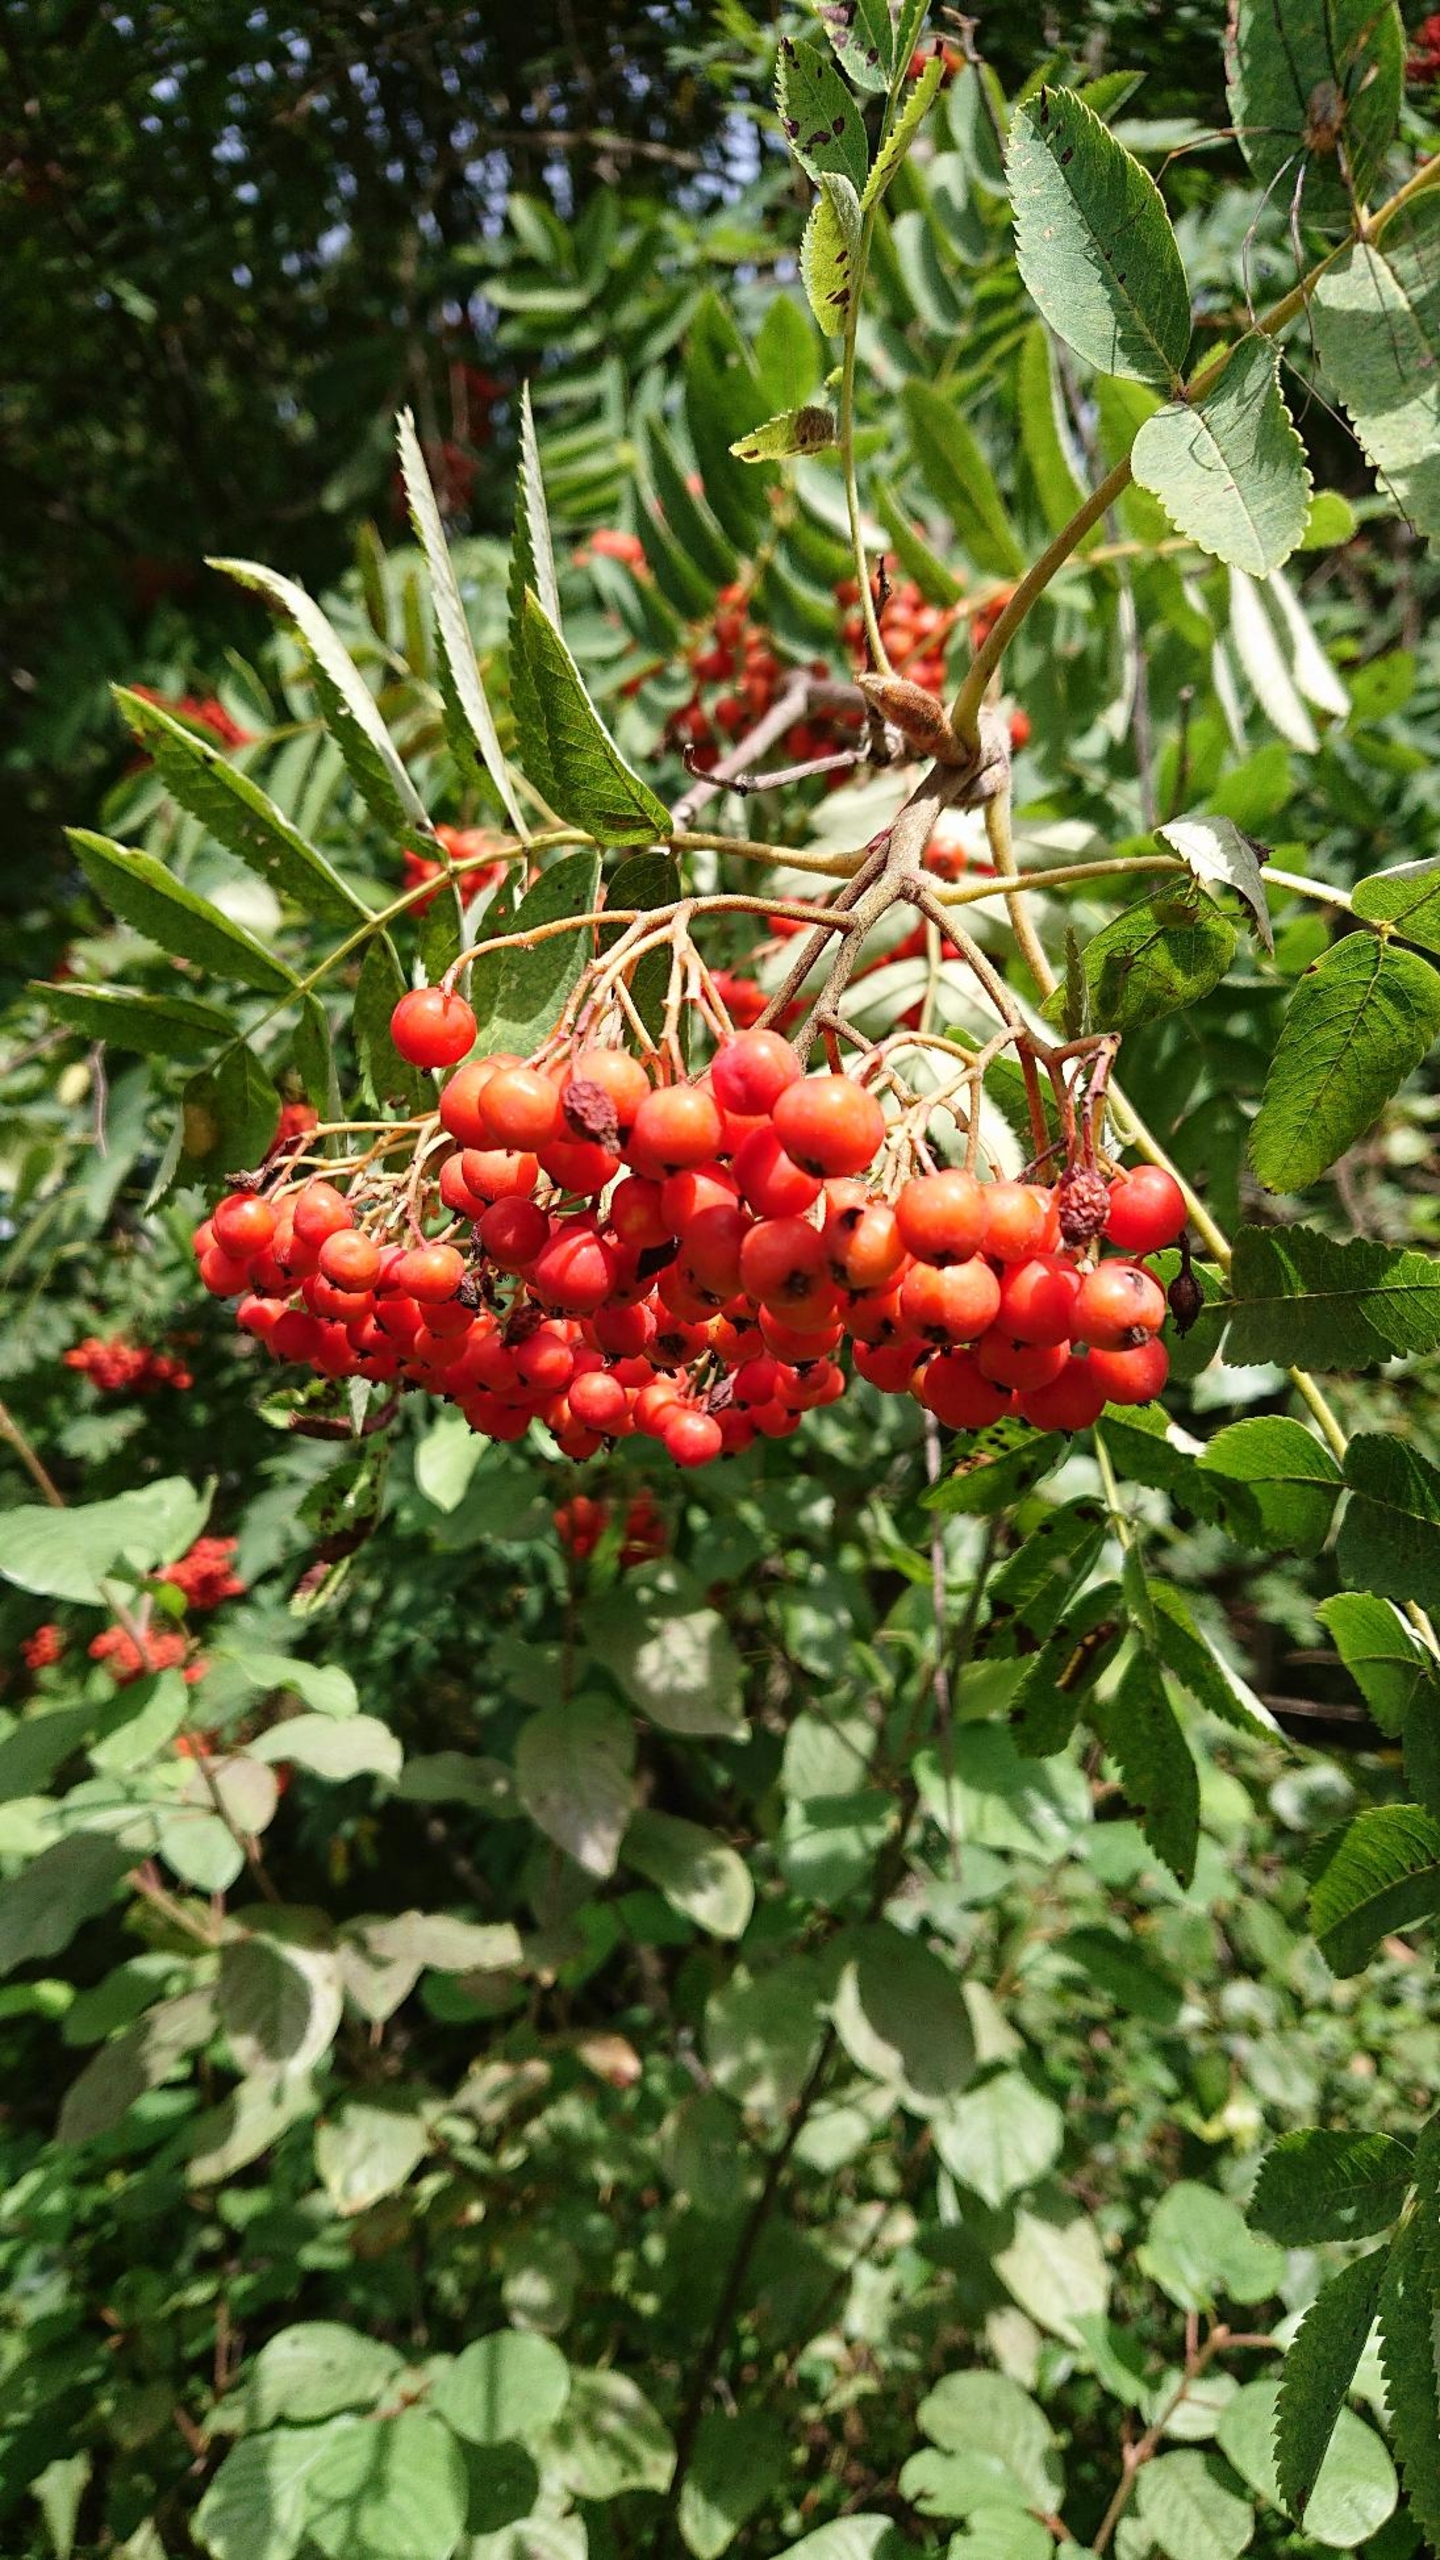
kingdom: Plantae
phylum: Tracheophyta
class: Magnoliopsida
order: Rosales
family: Rosaceae
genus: Sorbus
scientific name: Sorbus aucuparia
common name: Almindelig røn
